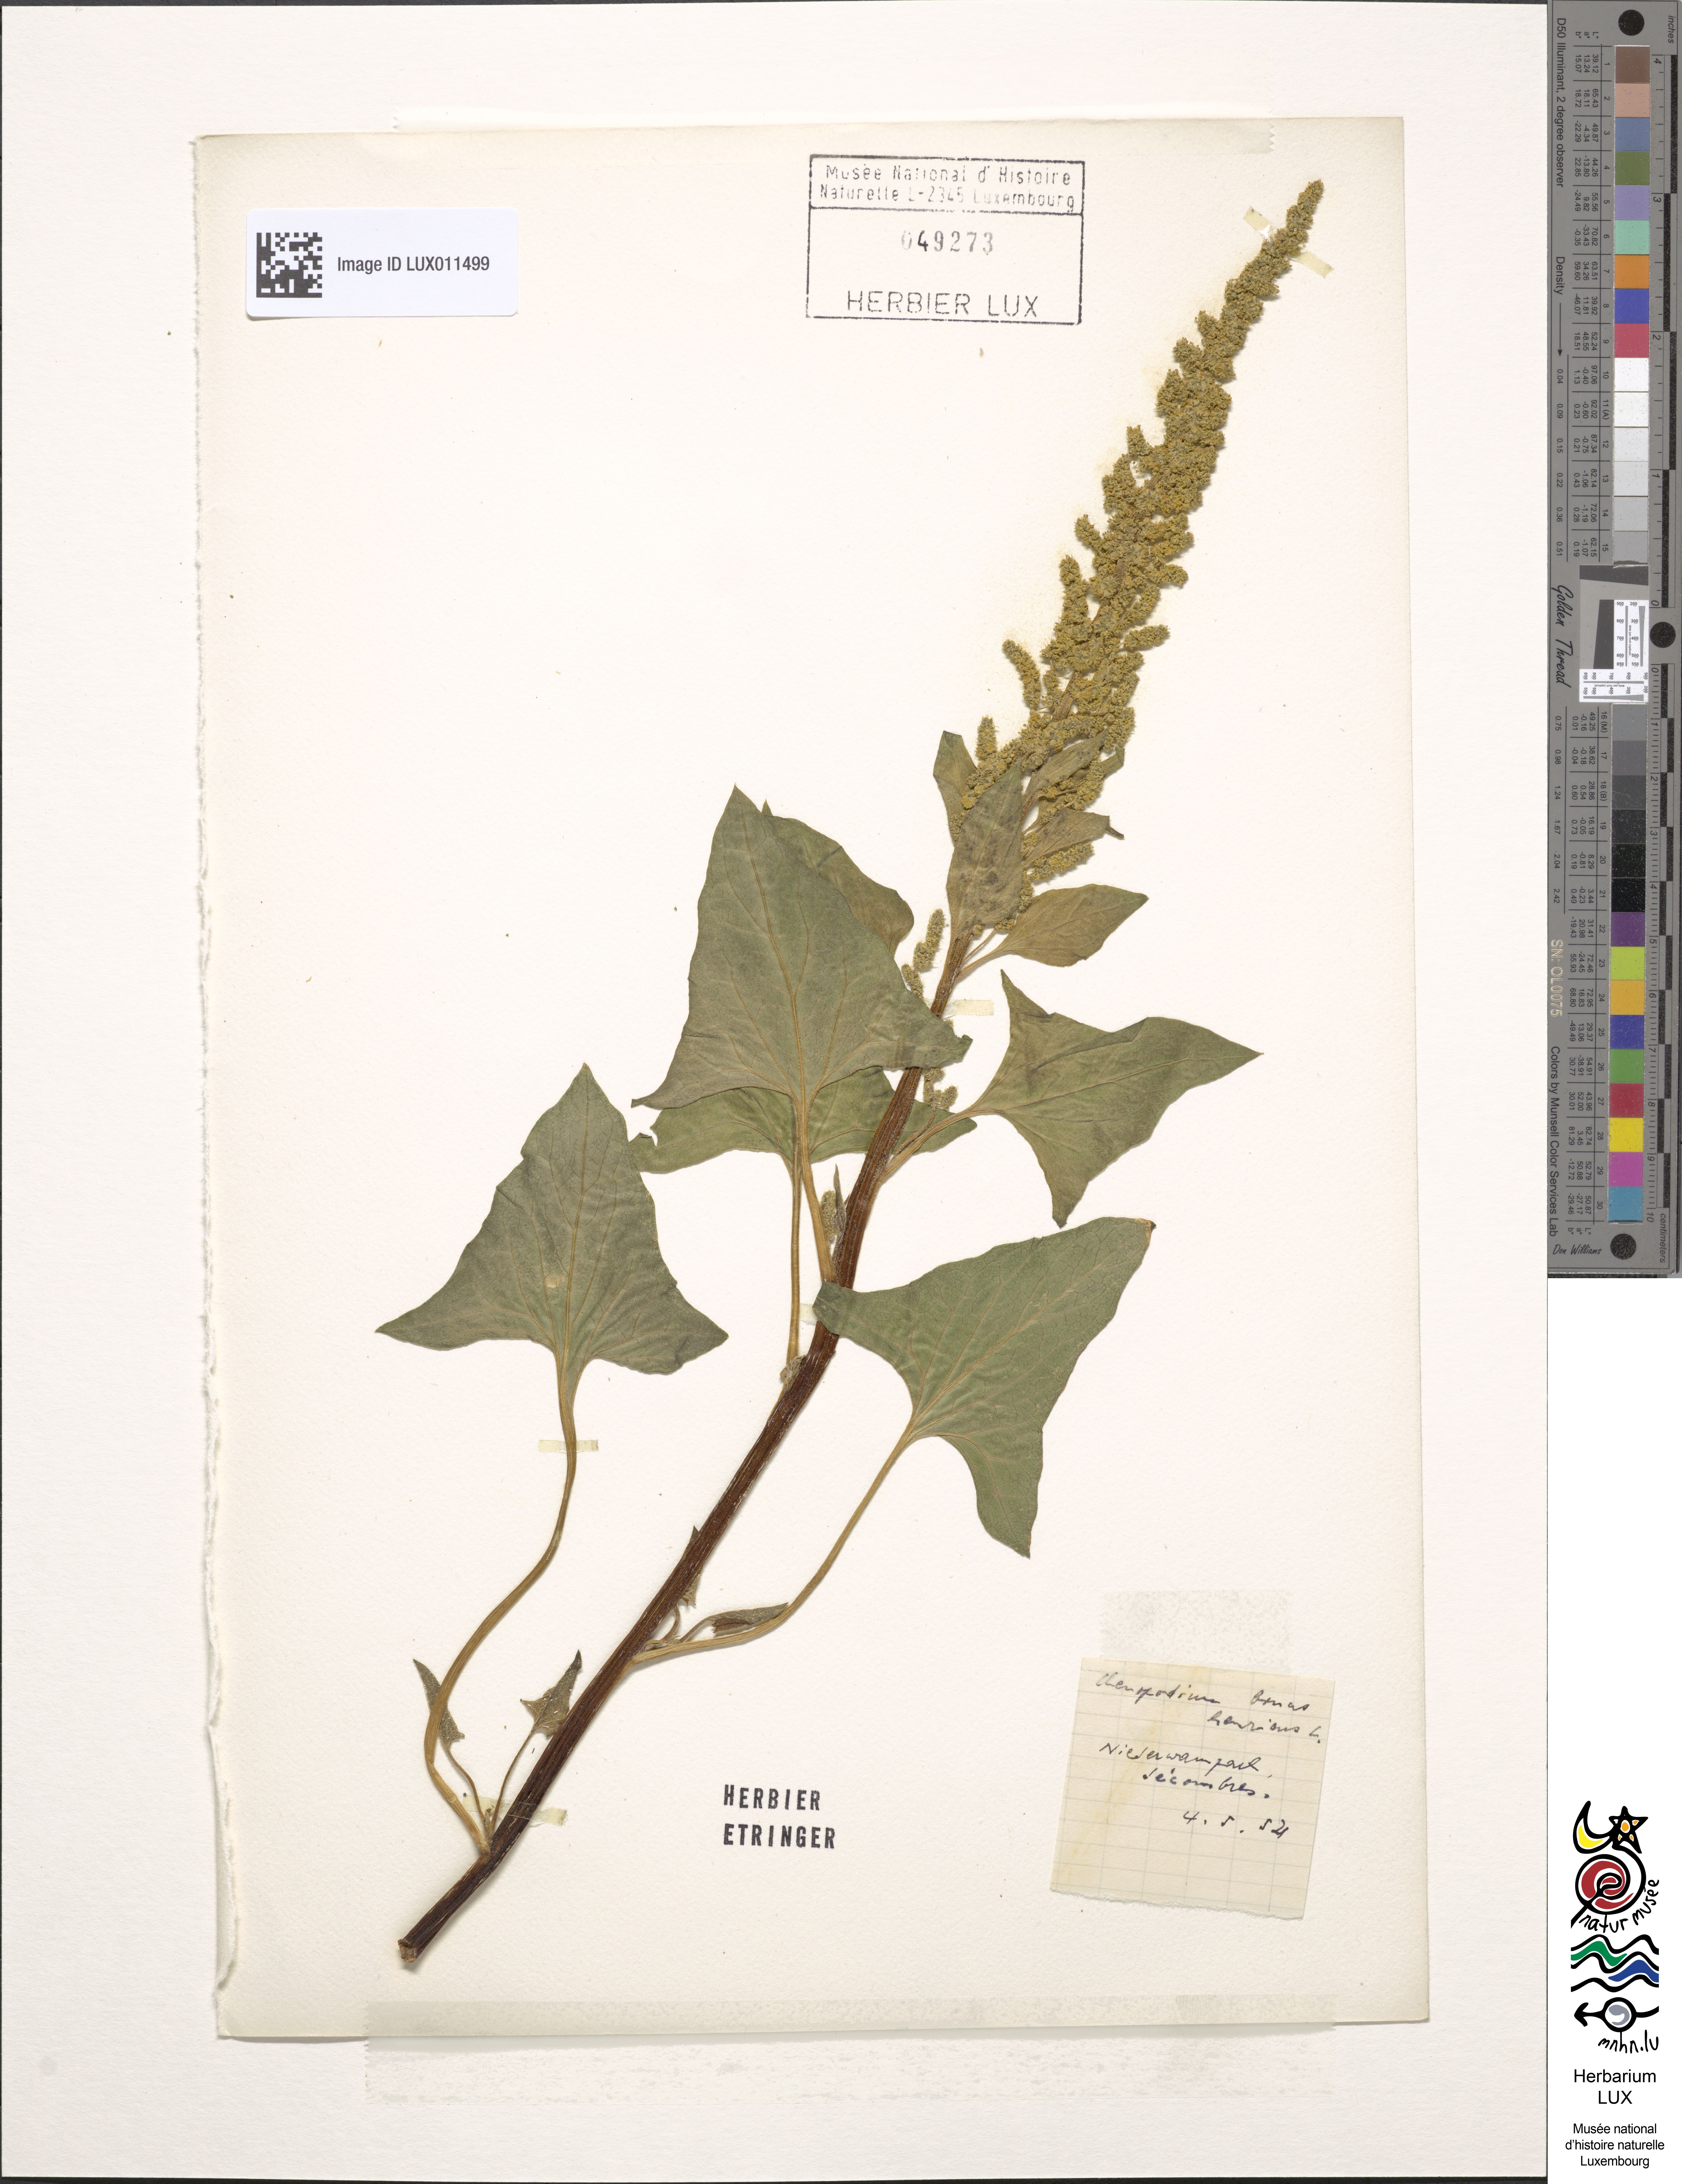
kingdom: Plantae
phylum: Tracheophyta
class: Magnoliopsida
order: Caryophyllales
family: Amaranthaceae
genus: Blitum
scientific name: Blitum bonus-henricus
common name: Good king henry
